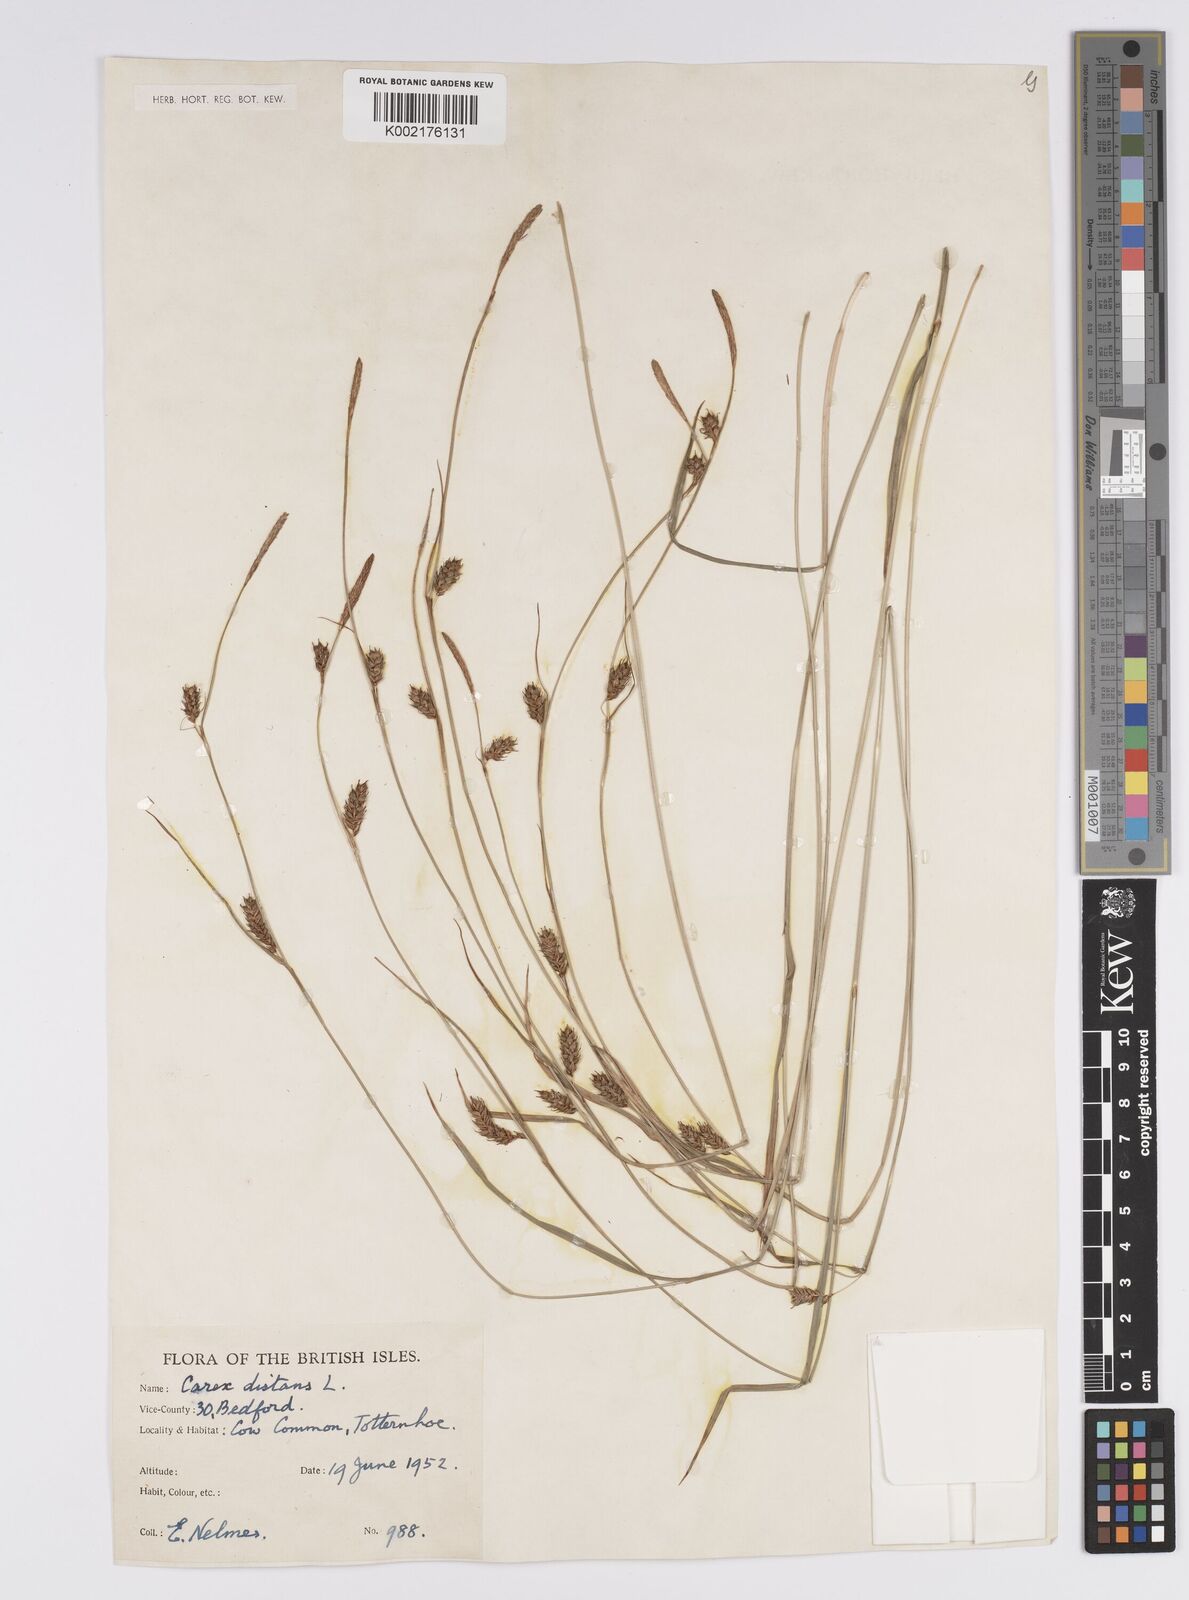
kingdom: Plantae
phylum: Tracheophyta
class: Liliopsida
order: Poales
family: Cyperaceae
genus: Carex
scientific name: Carex distans
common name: Distant sedge
